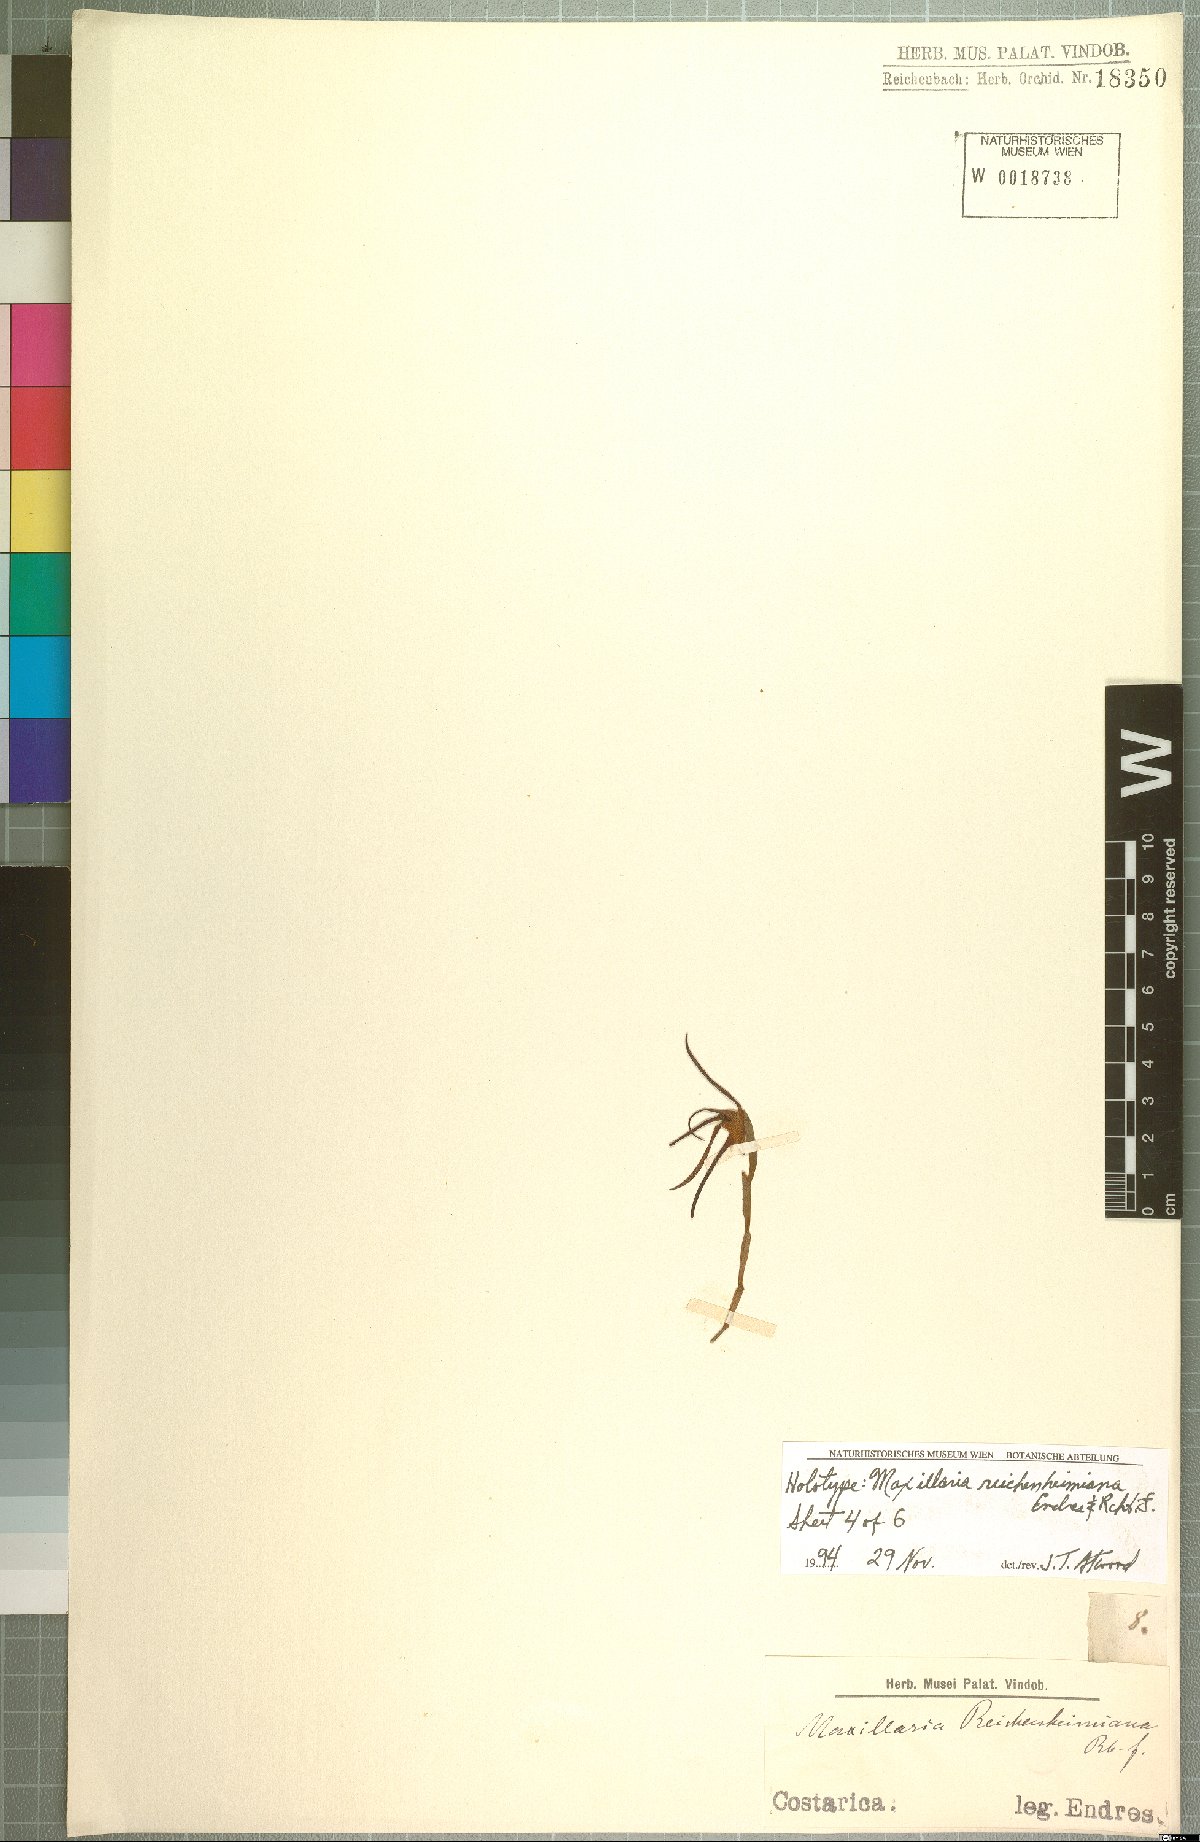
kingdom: Plantae
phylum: Tracheophyta
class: Liliopsida
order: Asparagales
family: Orchidaceae
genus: Maxillaria
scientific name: Maxillaria reichenheimiana
